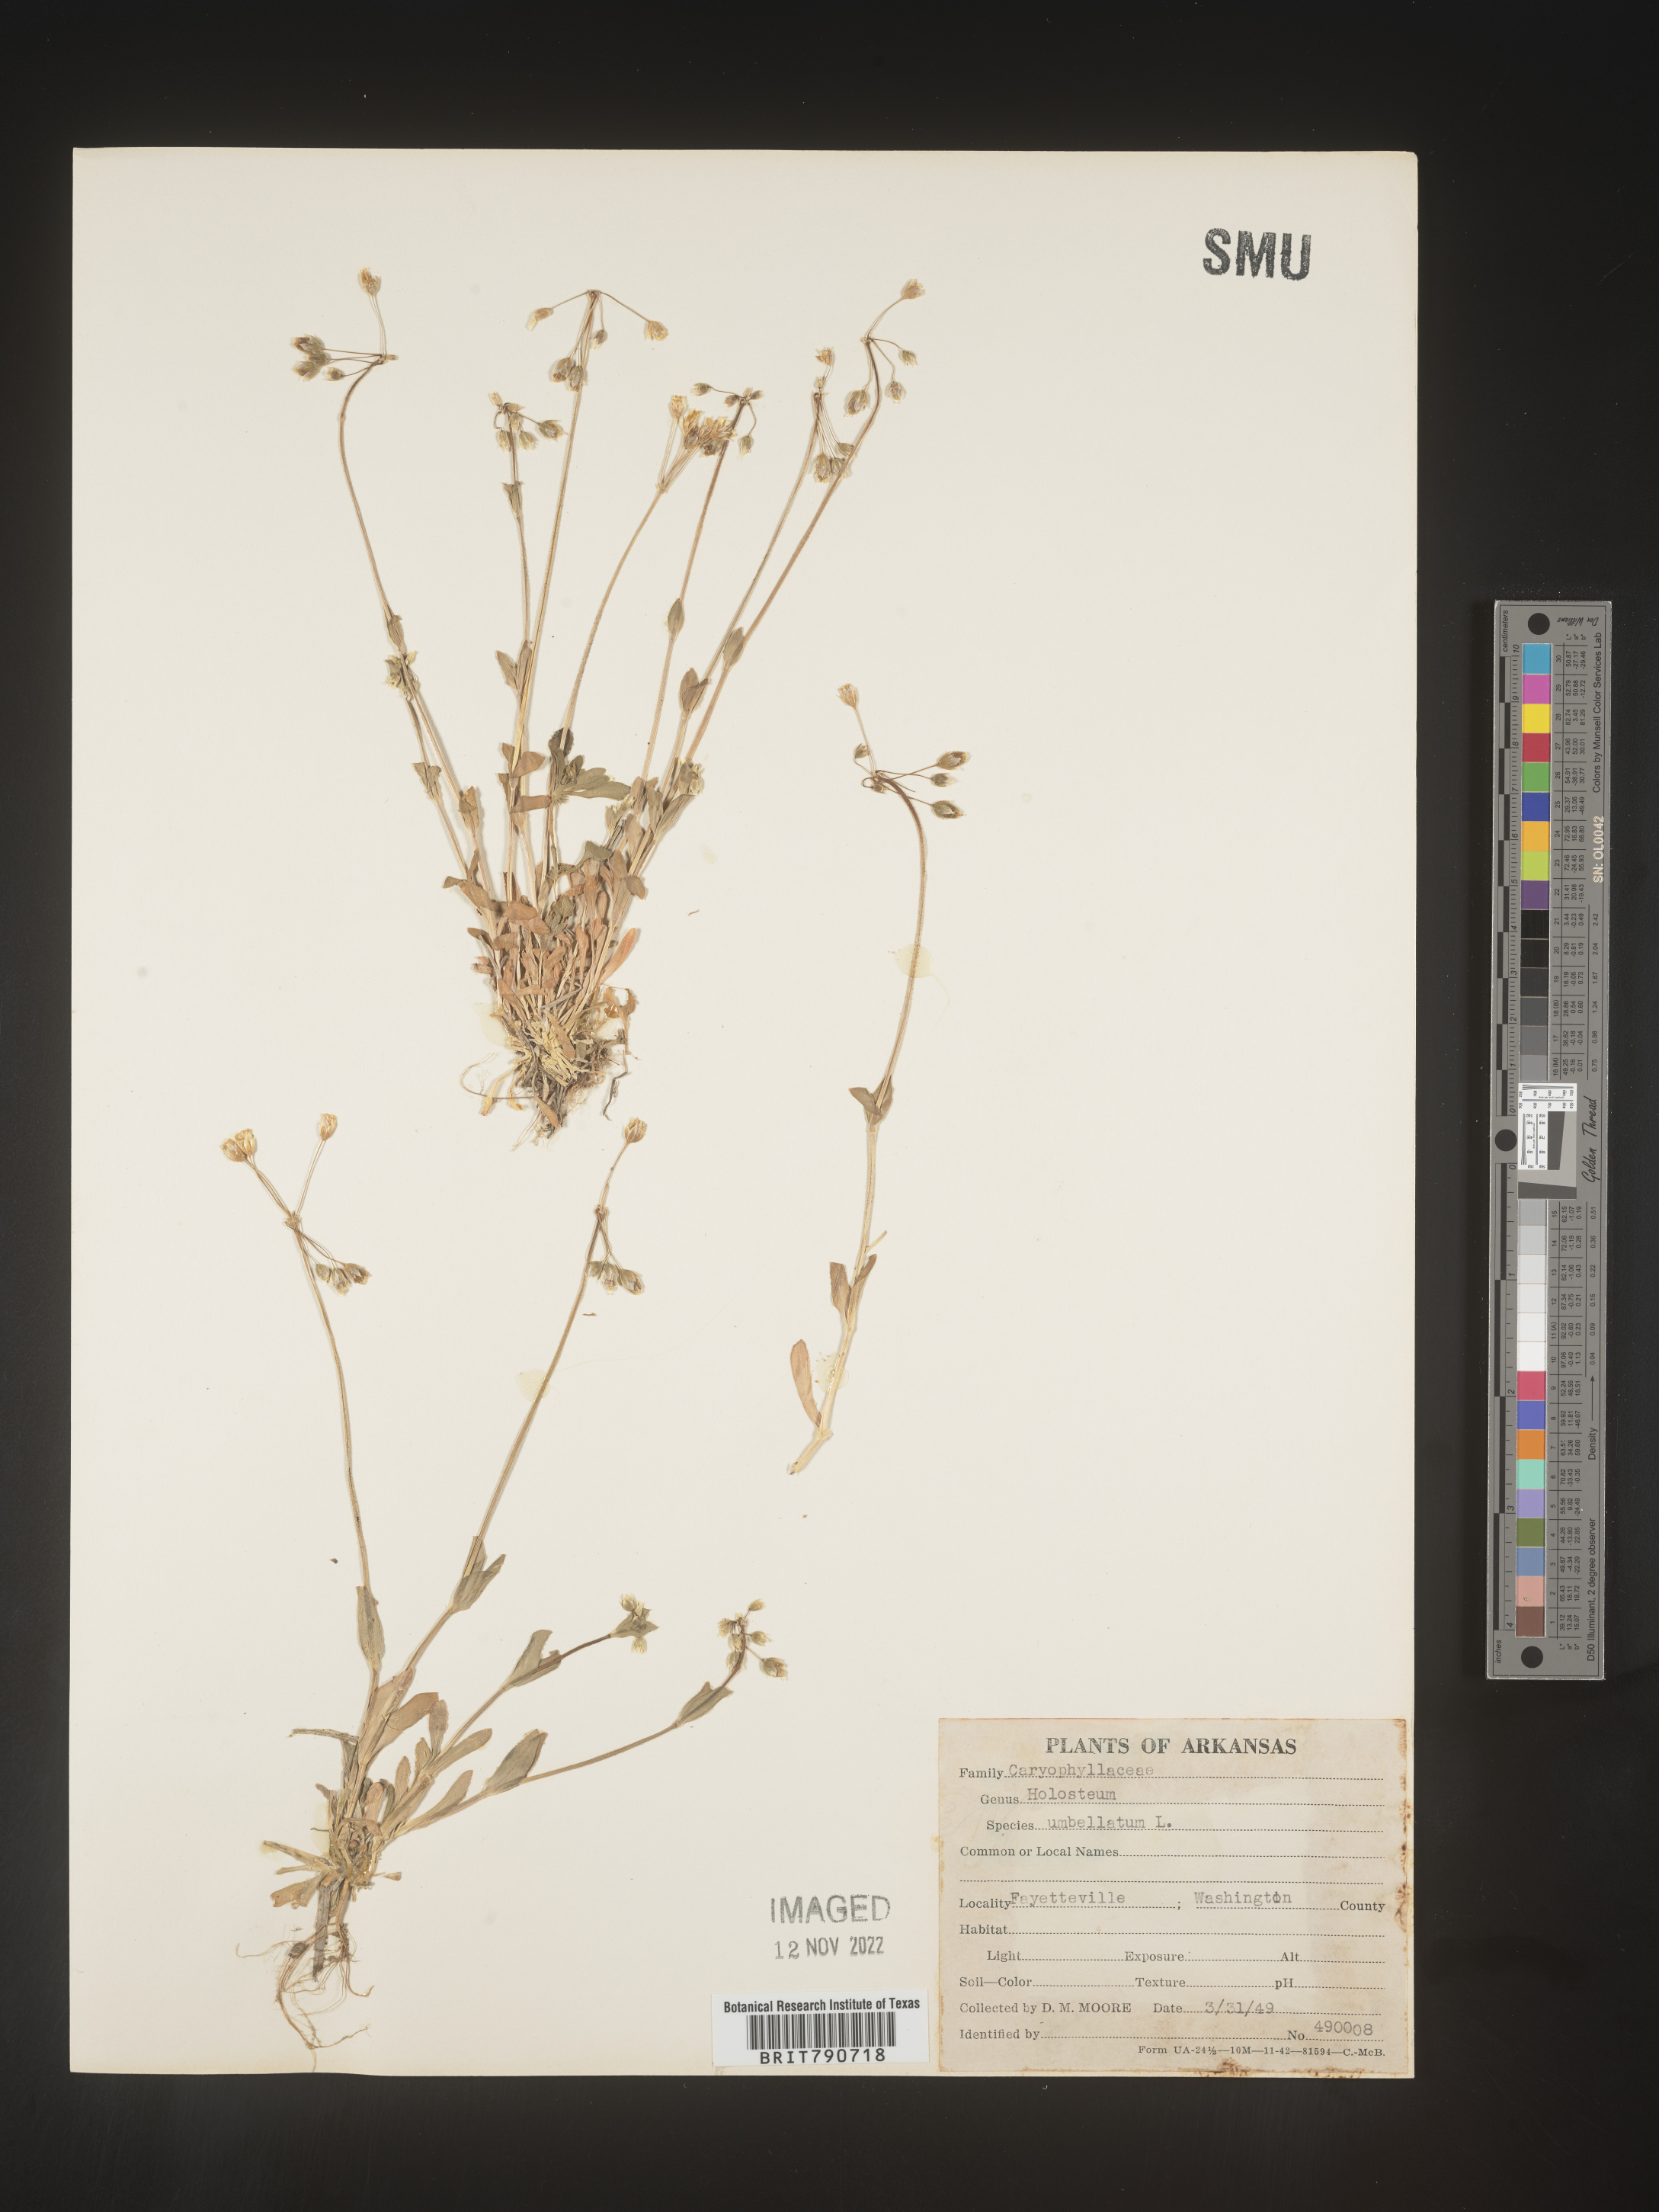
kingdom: Plantae
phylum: Tracheophyta
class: Magnoliopsida
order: Caryophyllales
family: Caryophyllaceae
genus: Holosteum
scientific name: Holosteum
